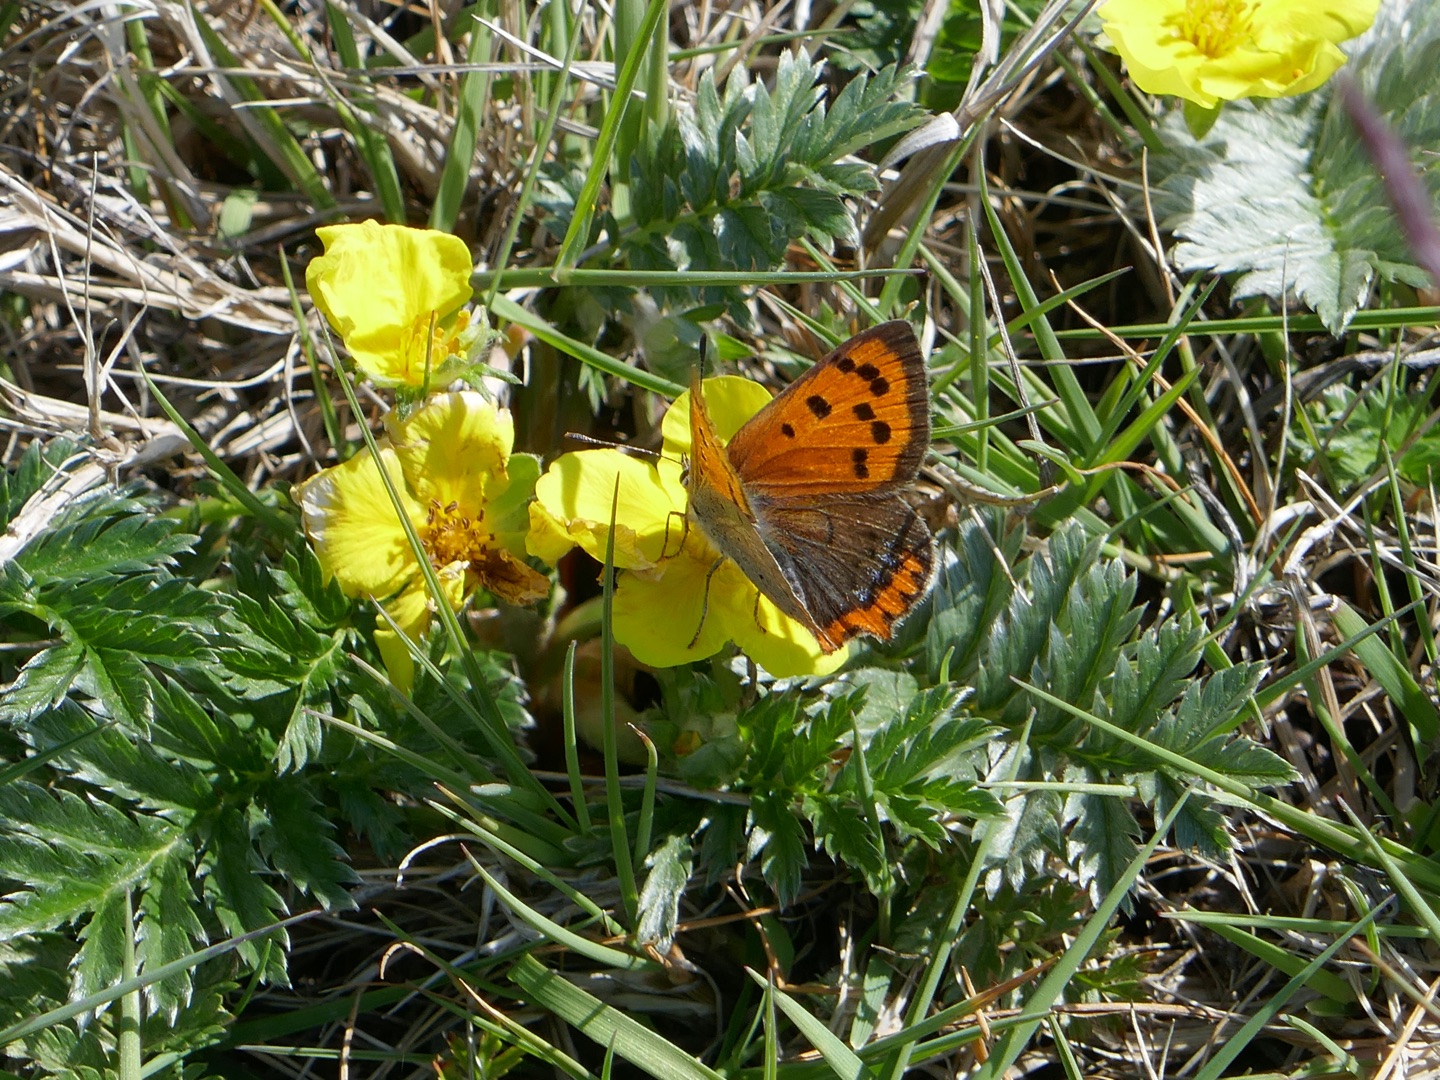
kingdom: Animalia
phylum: Arthropoda
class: Insecta
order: Lepidoptera
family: Lycaenidae
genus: Lycaena
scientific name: Lycaena phlaeas
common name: Lille ildfugl
